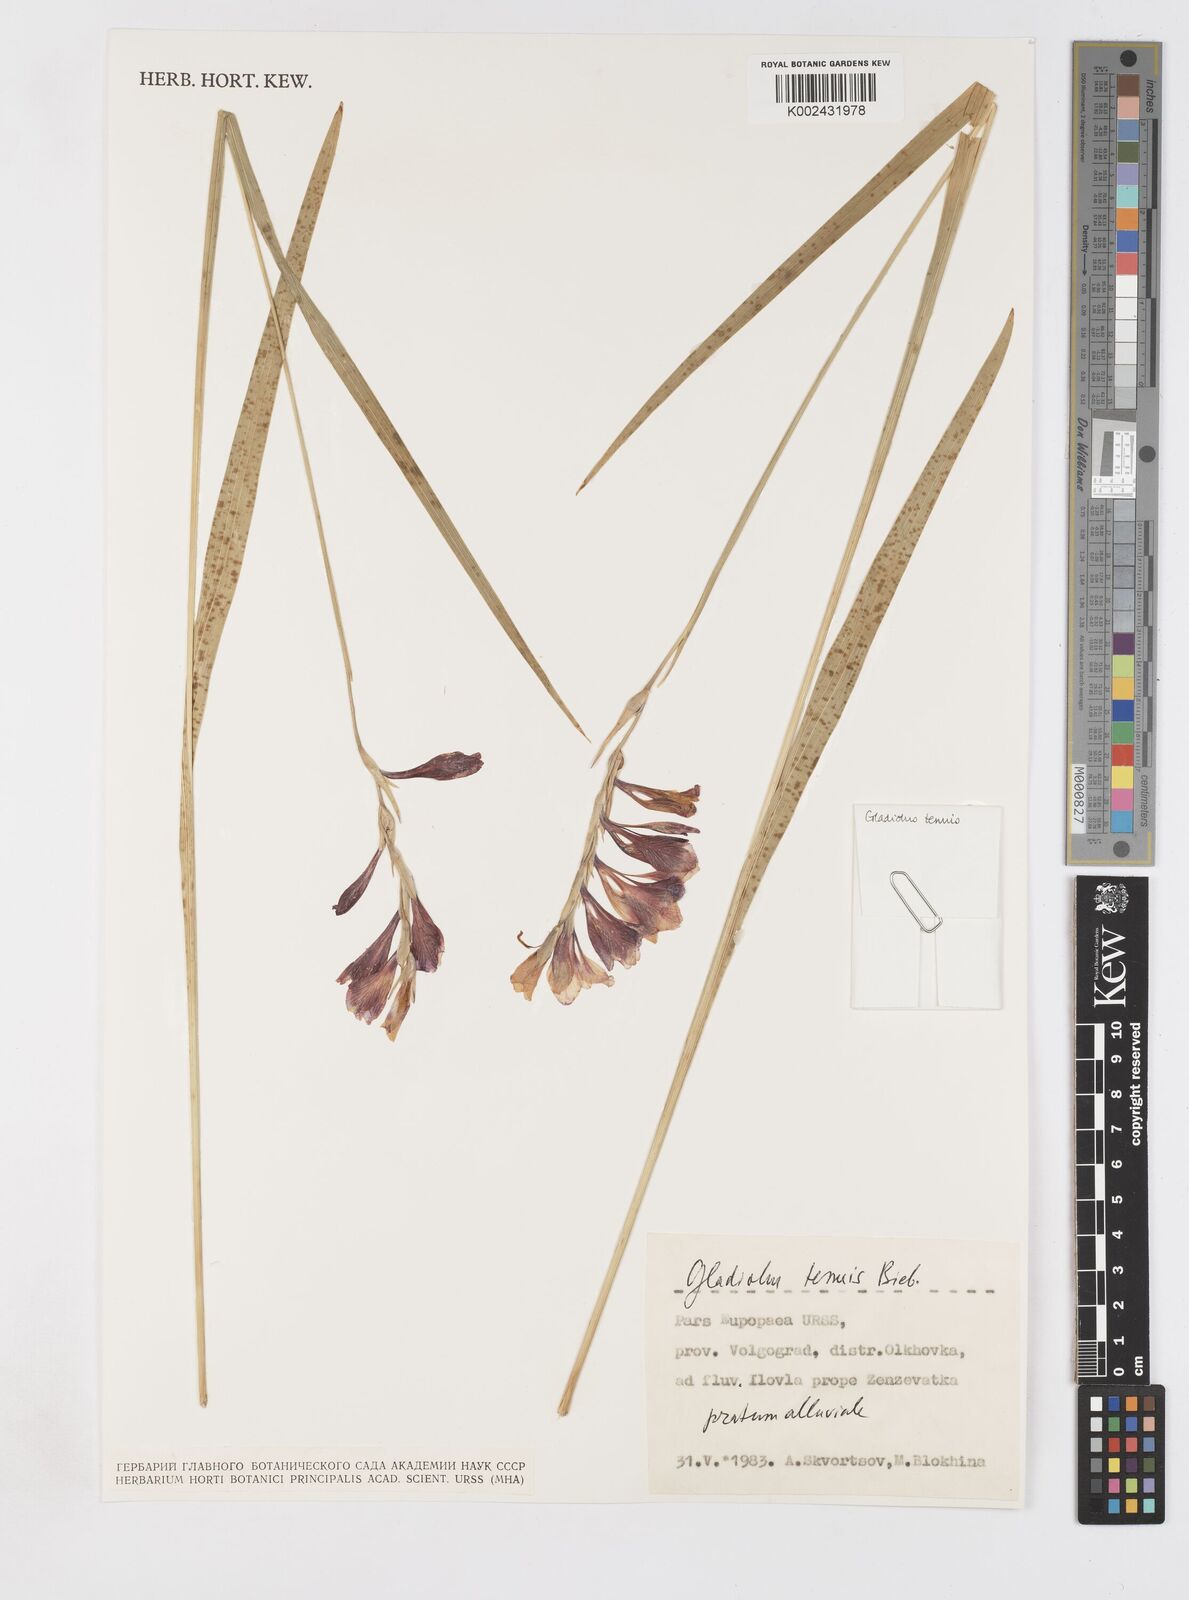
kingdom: Plantae
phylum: Tracheophyta
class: Liliopsida
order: Asparagales
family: Iridaceae
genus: Gladiolus
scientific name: Gladiolus tenuis
